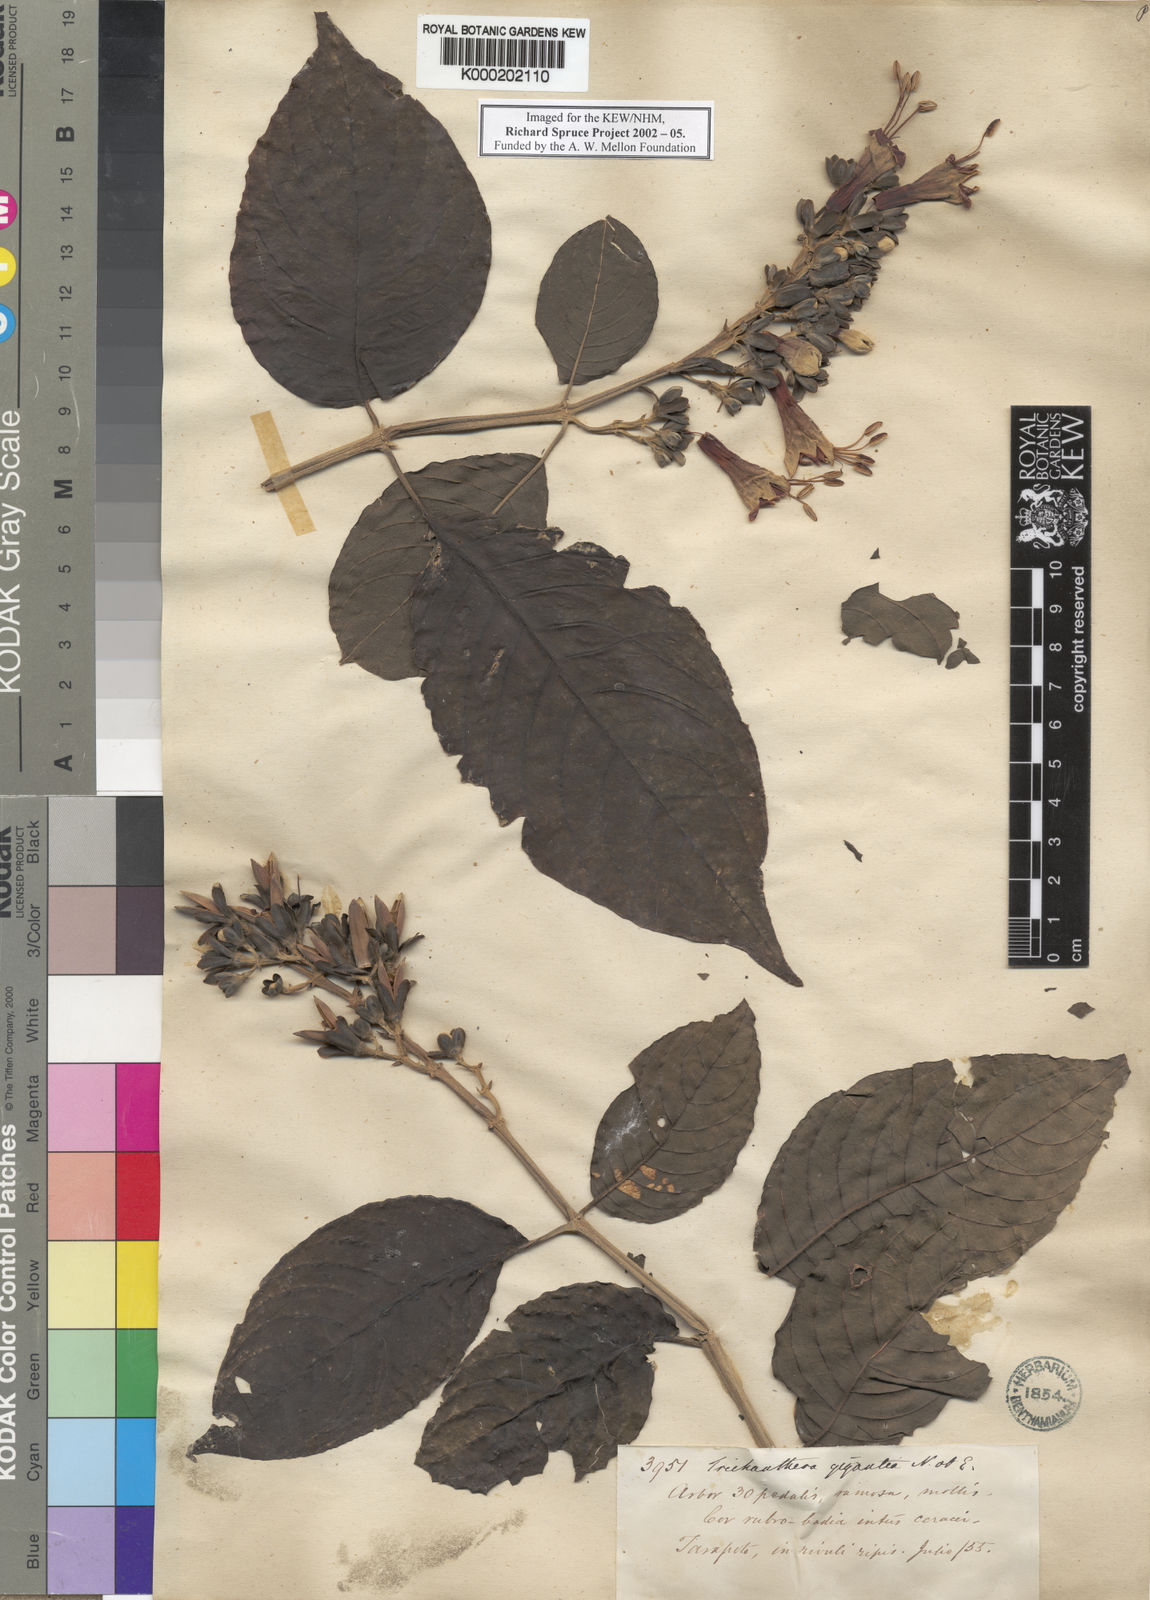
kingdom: Plantae
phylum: Tracheophyta
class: Magnoliopsida
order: Lamiales
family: Acanthaceae
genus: Trichanthera
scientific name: Trichanthera gigantea
